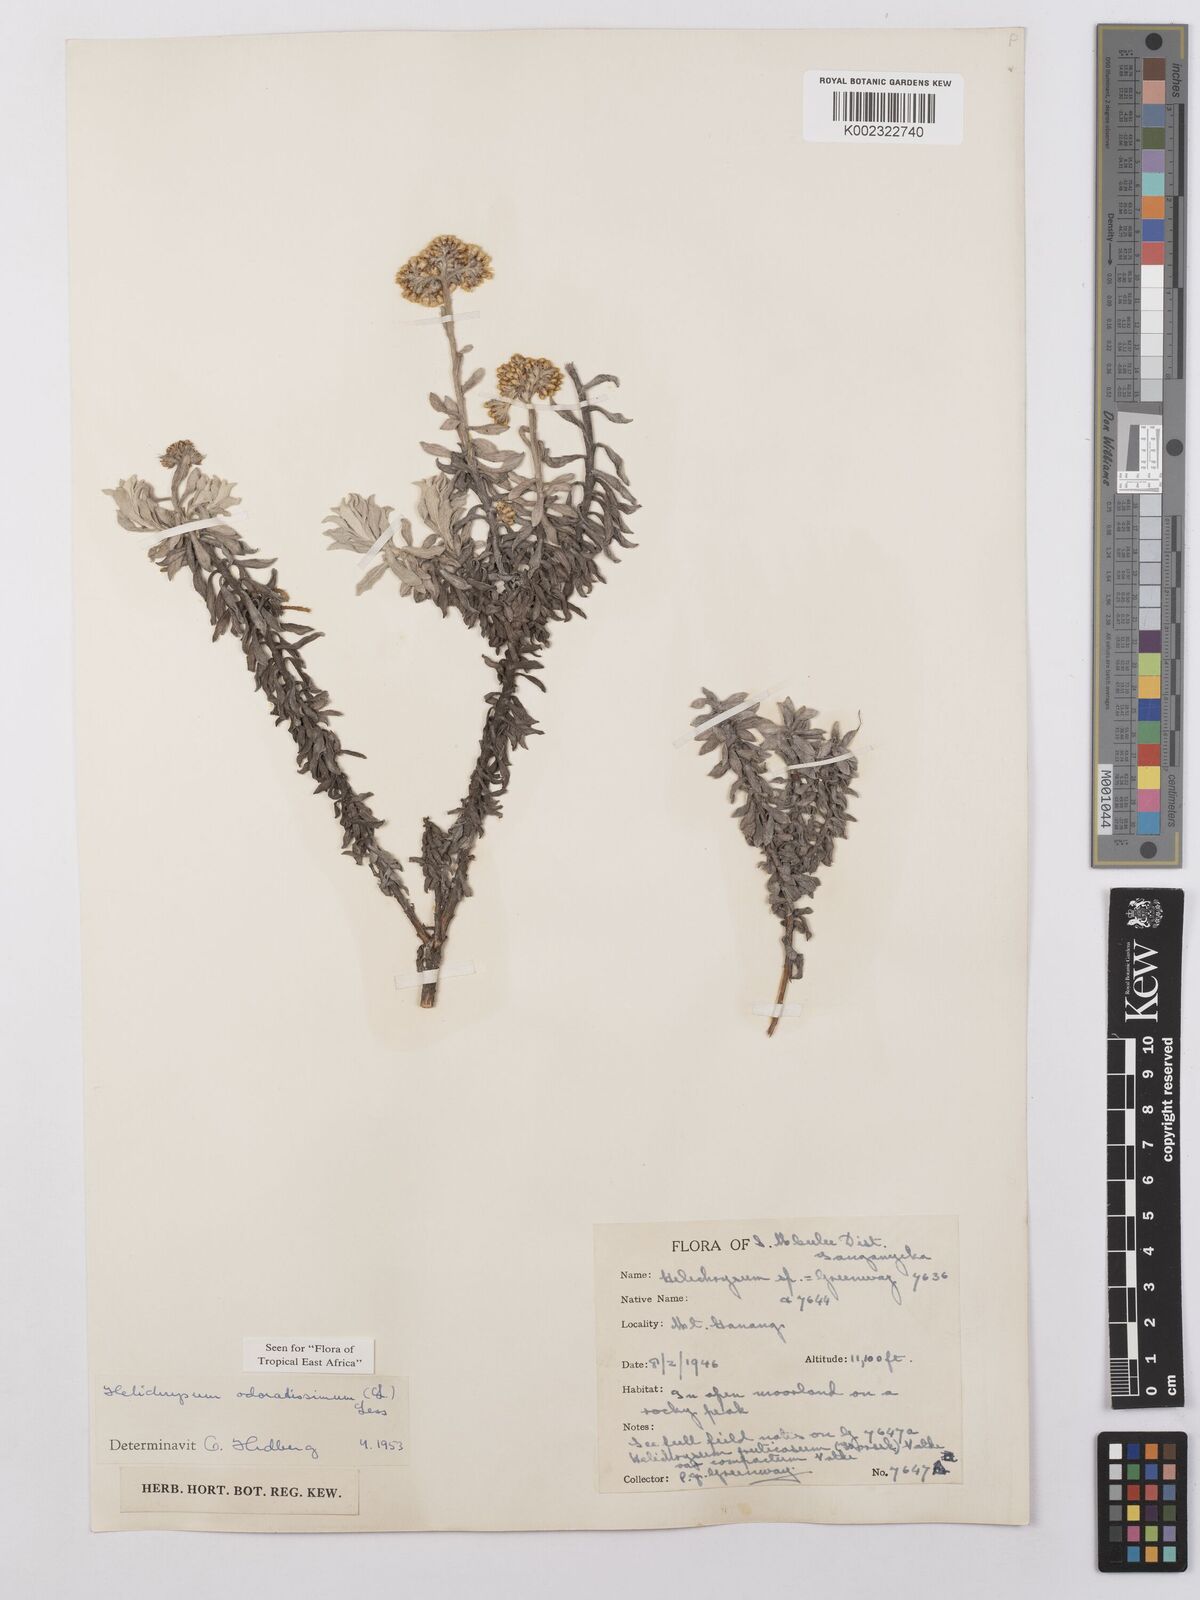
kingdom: Plantae
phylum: Tracheophyta
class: Magnoliopsida
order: Asterales
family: Asteraceae
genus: Helichrysum
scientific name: Helichrysum odoratissimum
